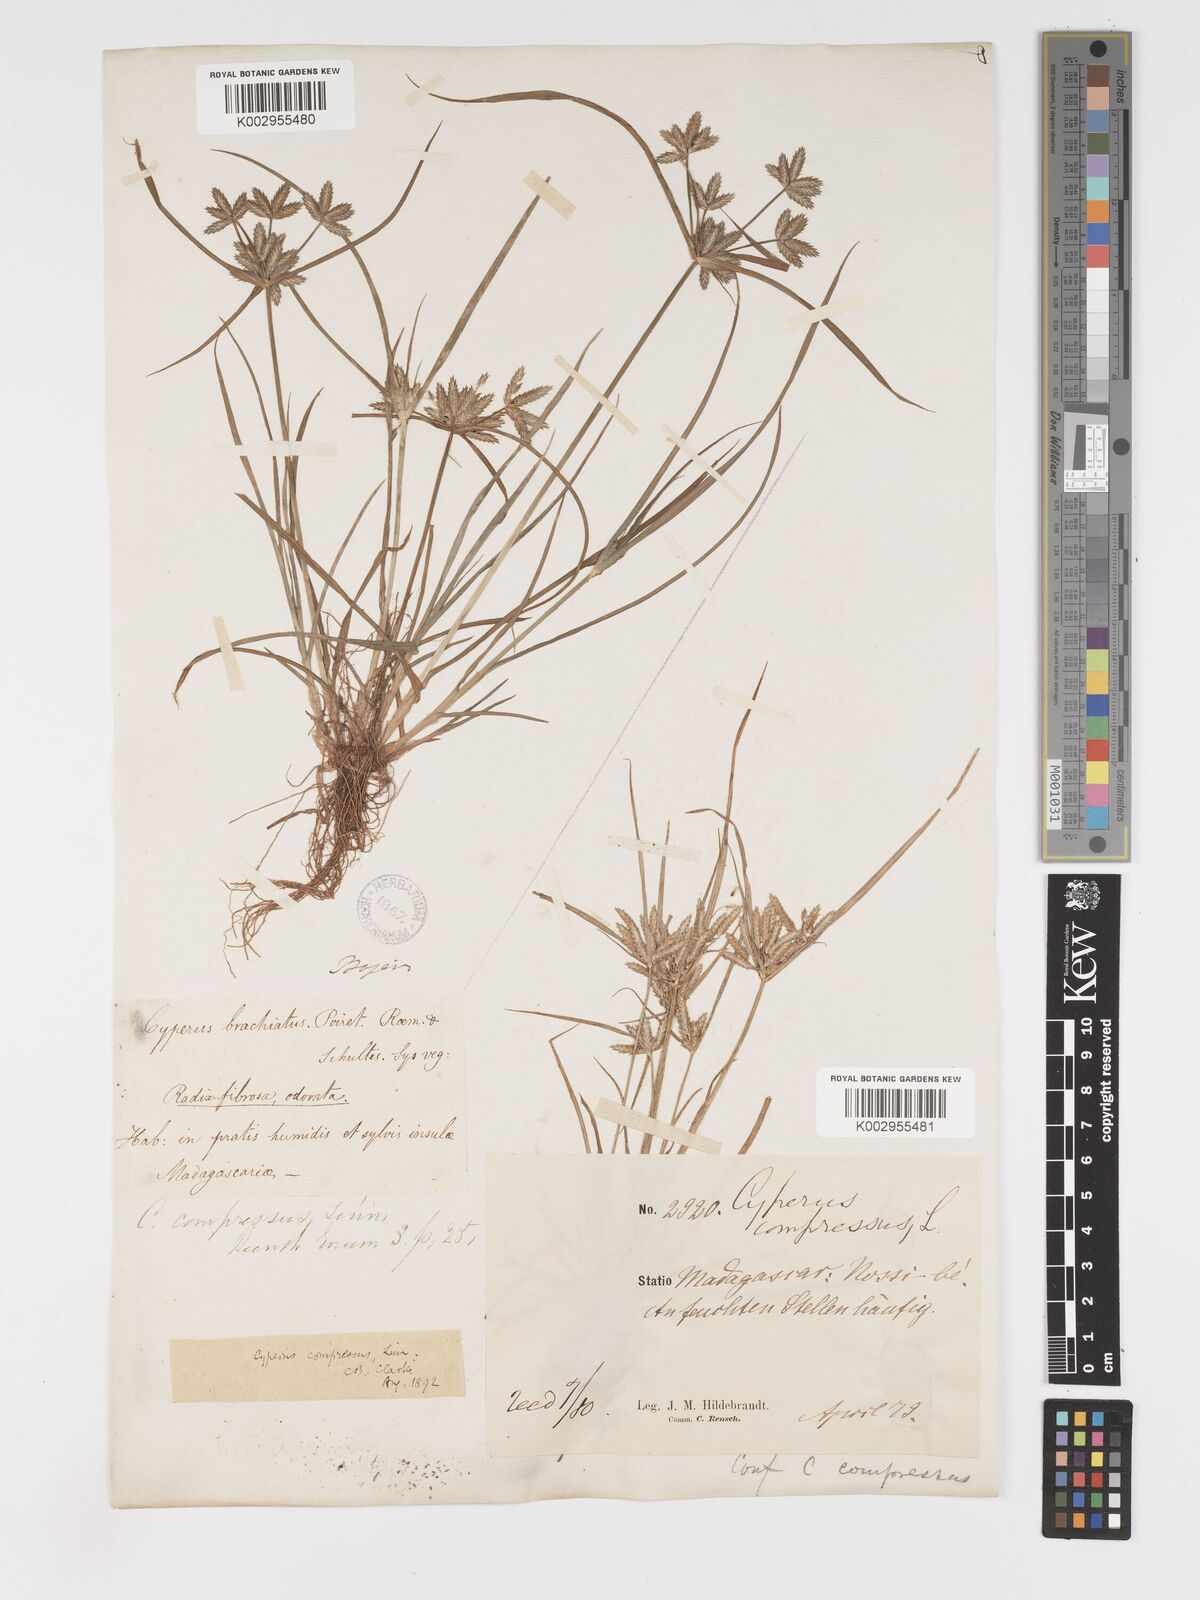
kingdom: Plantae
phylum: Tracheophyta
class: Liliopsida
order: Poales
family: Cyperaceae
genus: Cyperus
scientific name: Cyperus compressus
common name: Poorland flatsedge
